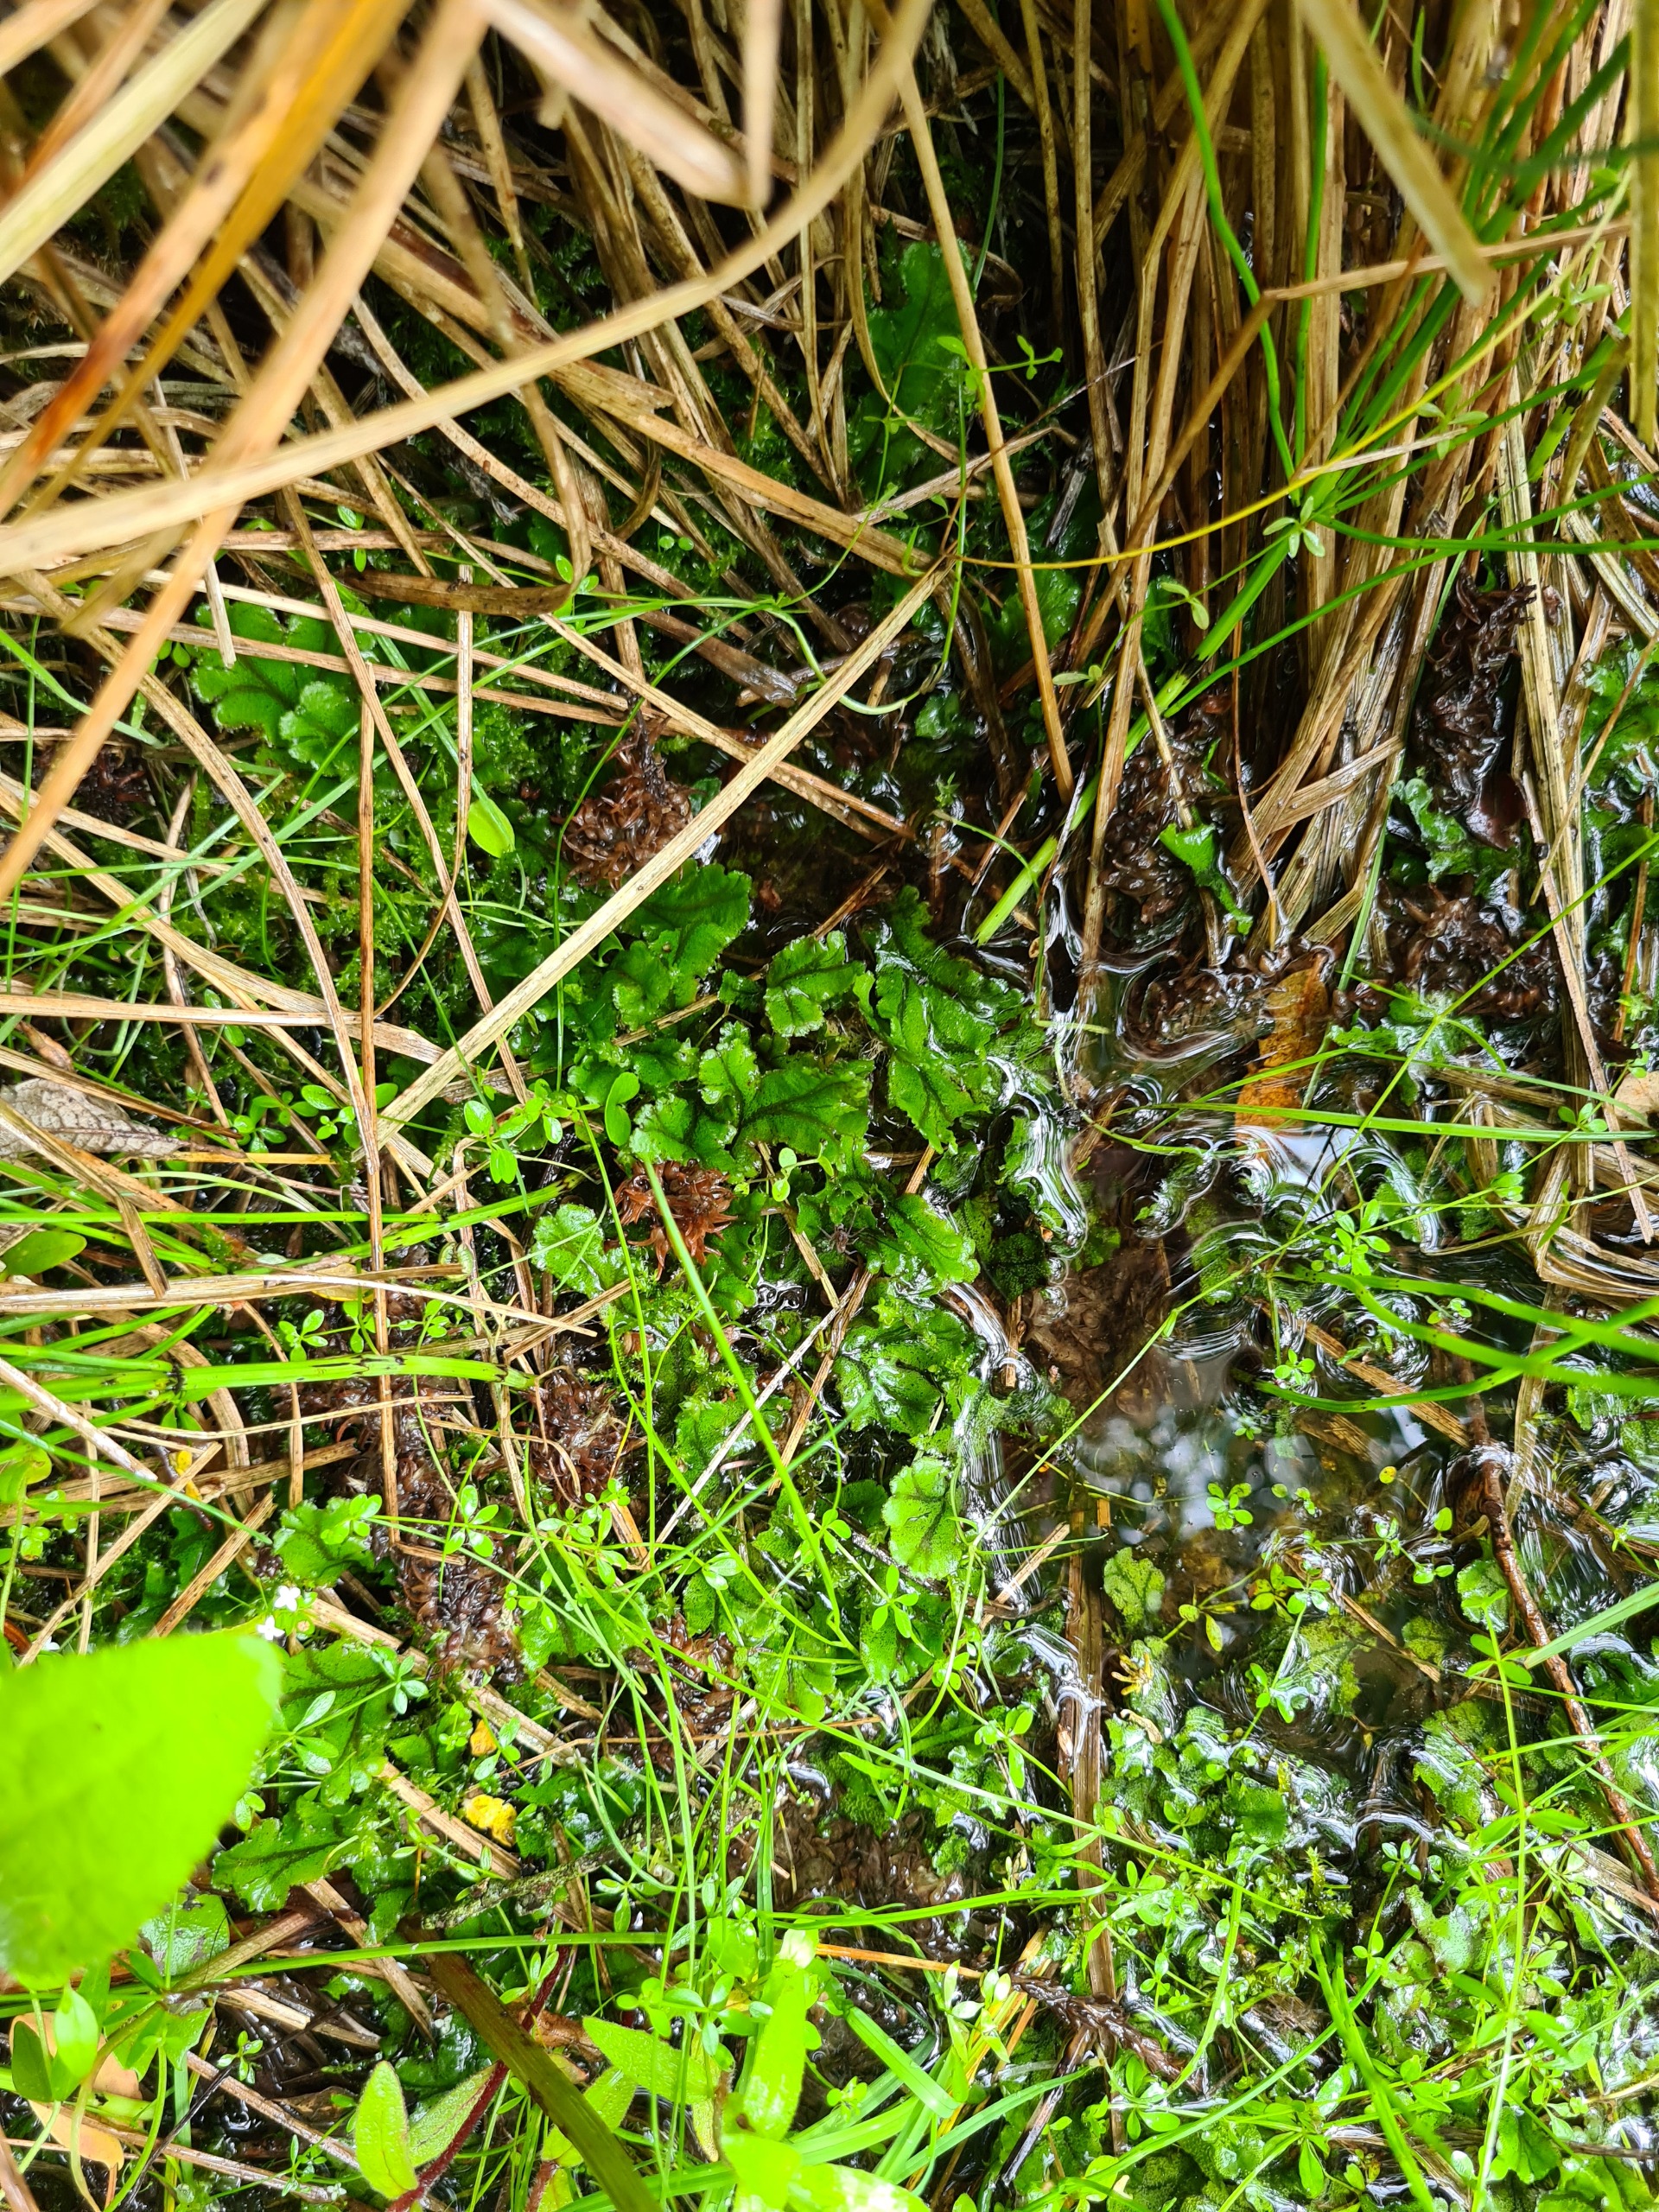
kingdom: Plantae
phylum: Marchantiophyta
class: Marchantiopsida
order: Marchantiales
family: Marchantiaceae
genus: Marchantia
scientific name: Marchantia polymorpha
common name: Mose-lungemos
